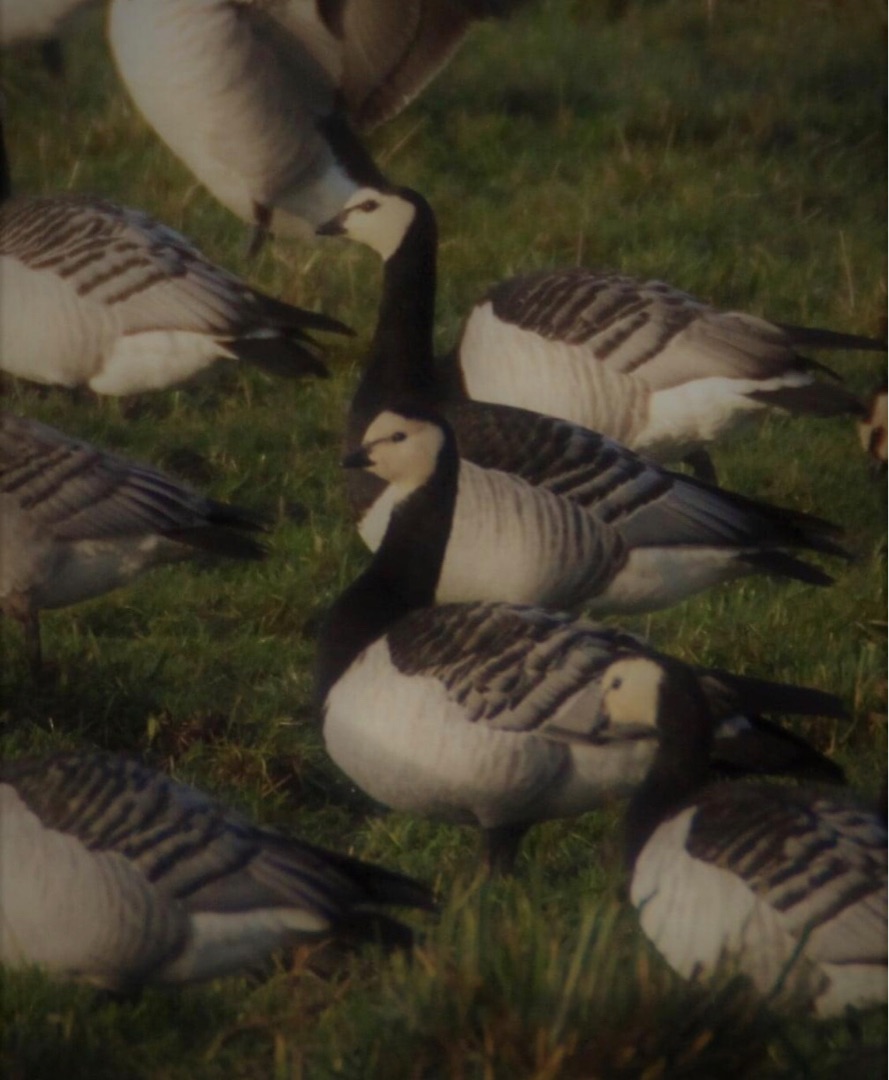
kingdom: Animalia
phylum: Chordata
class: Aves
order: Anseriformes
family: Anatidae
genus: Branta
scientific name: Branta leucopsis
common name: Bramgås
